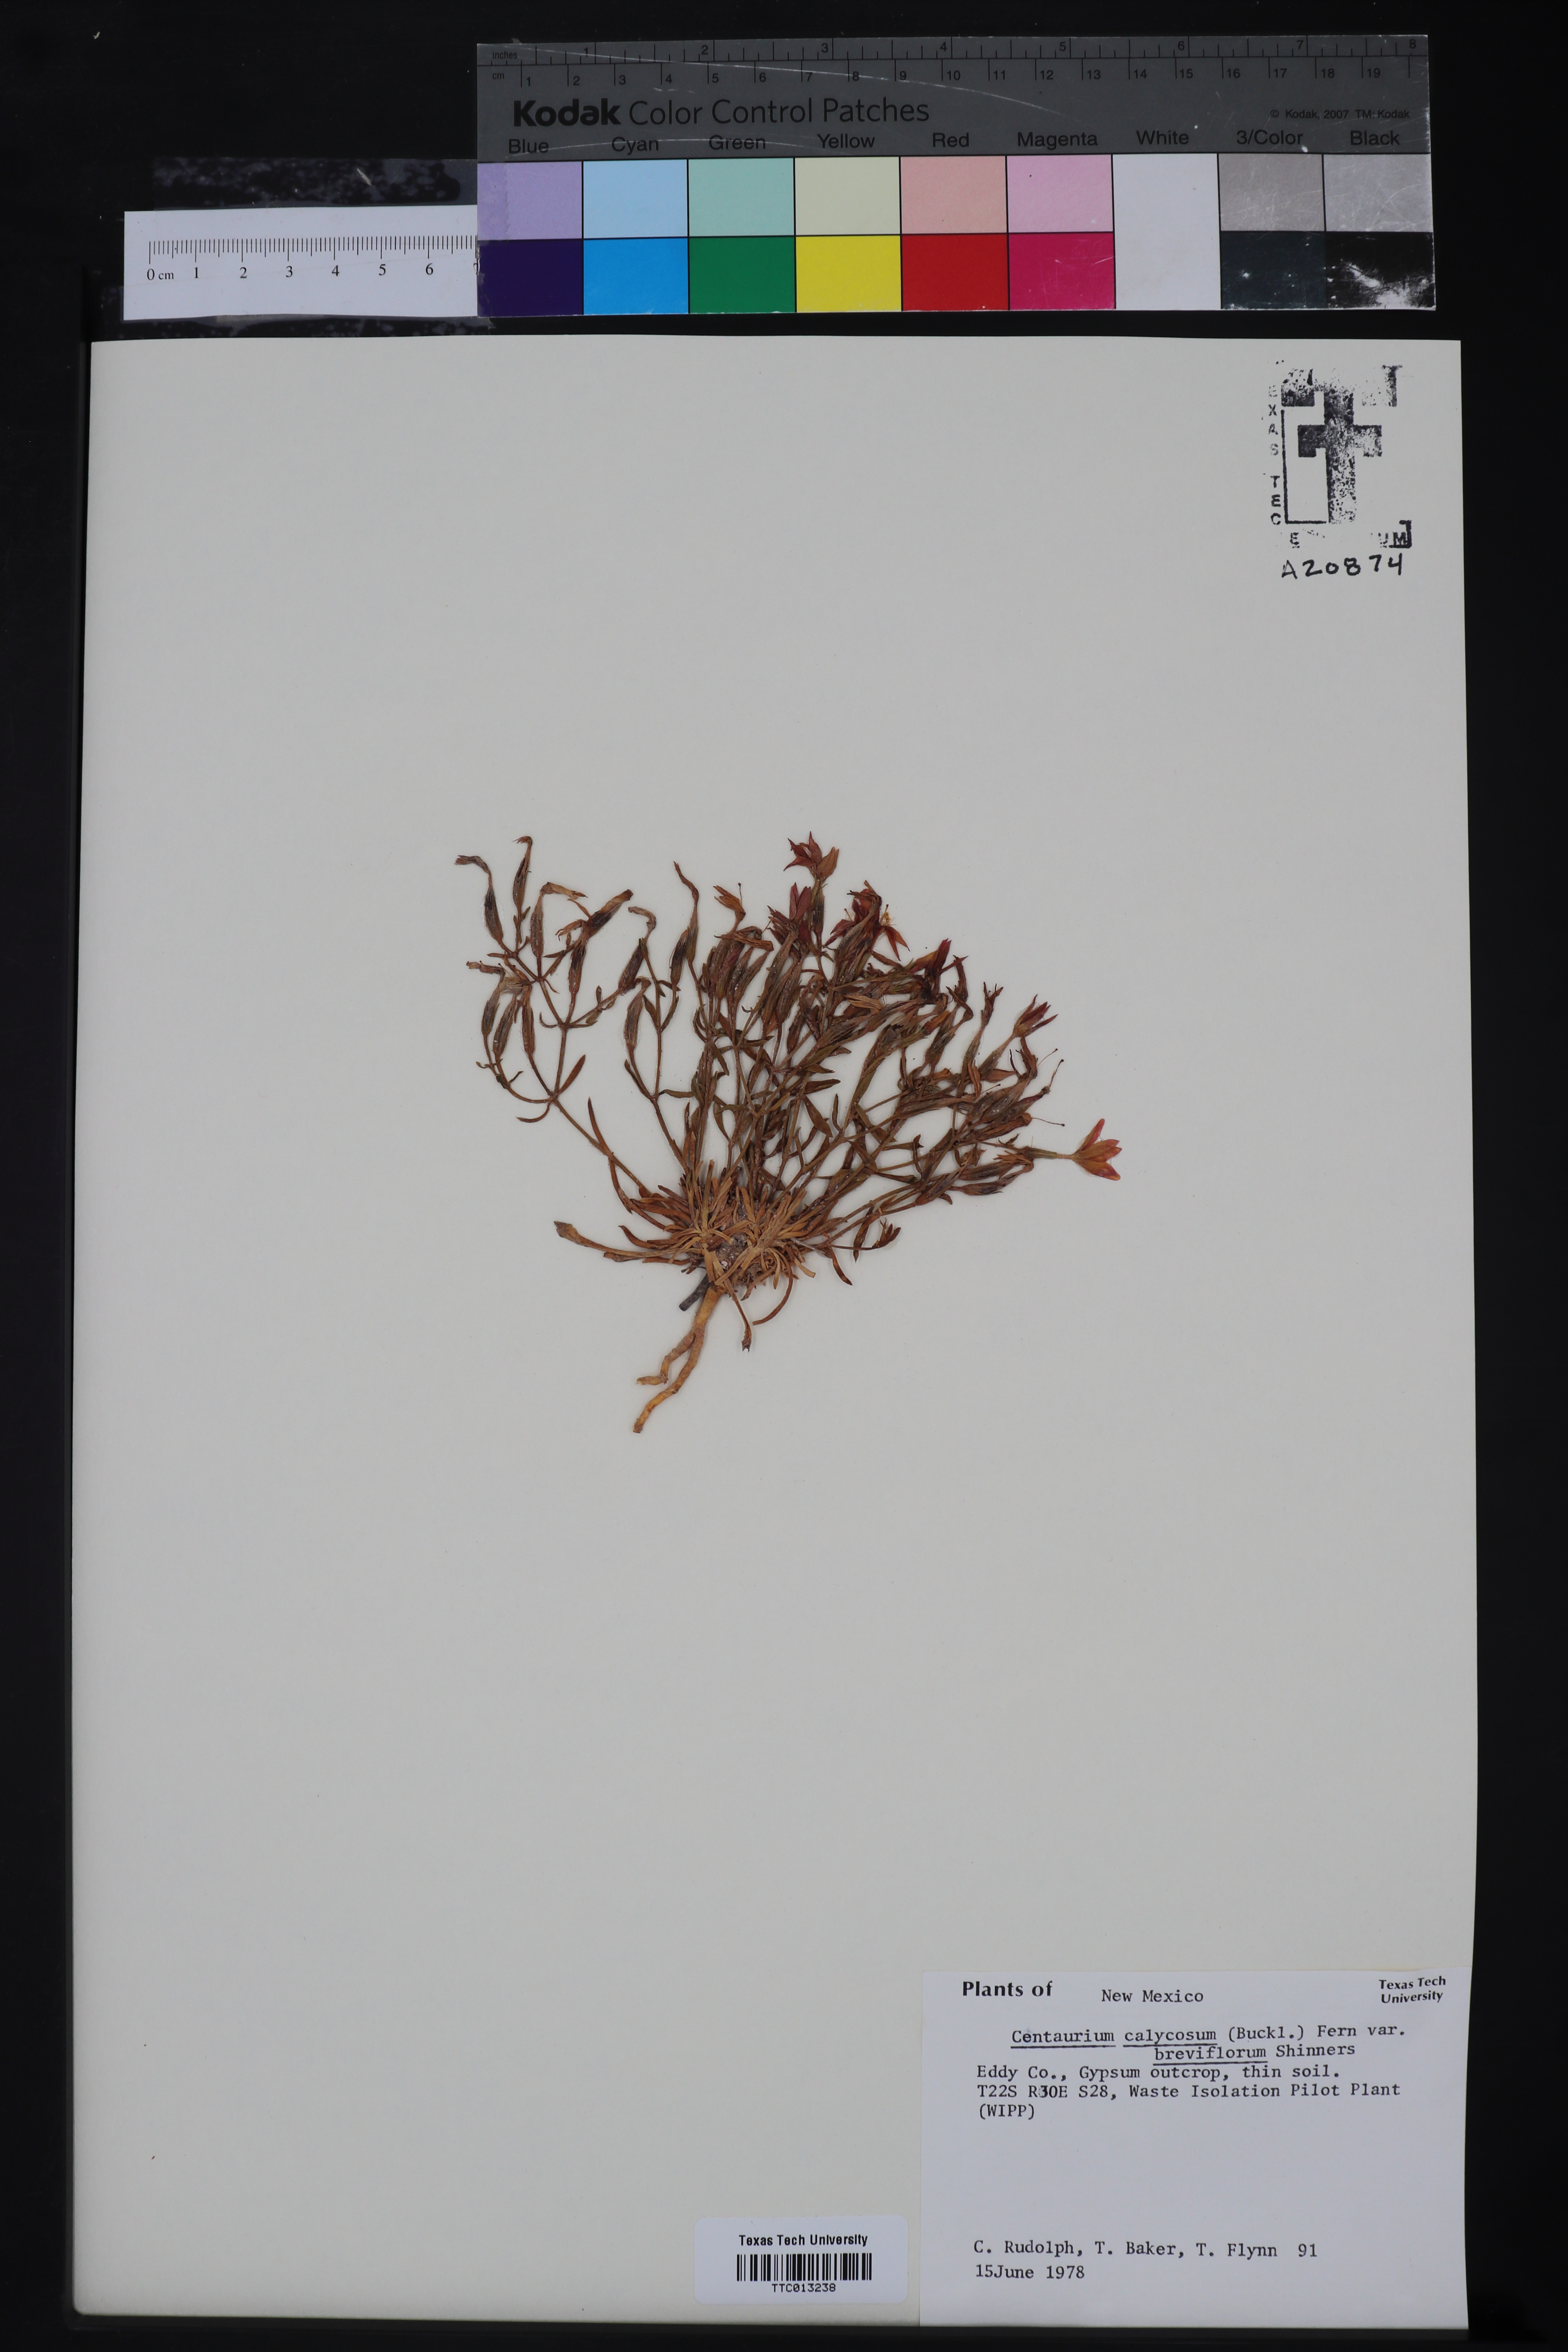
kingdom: Plantae
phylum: Tracheophyta
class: Magnoliopsida
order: Gentianales
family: Gentianaceae
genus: Zeltnera
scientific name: Zeltnera calycosa
